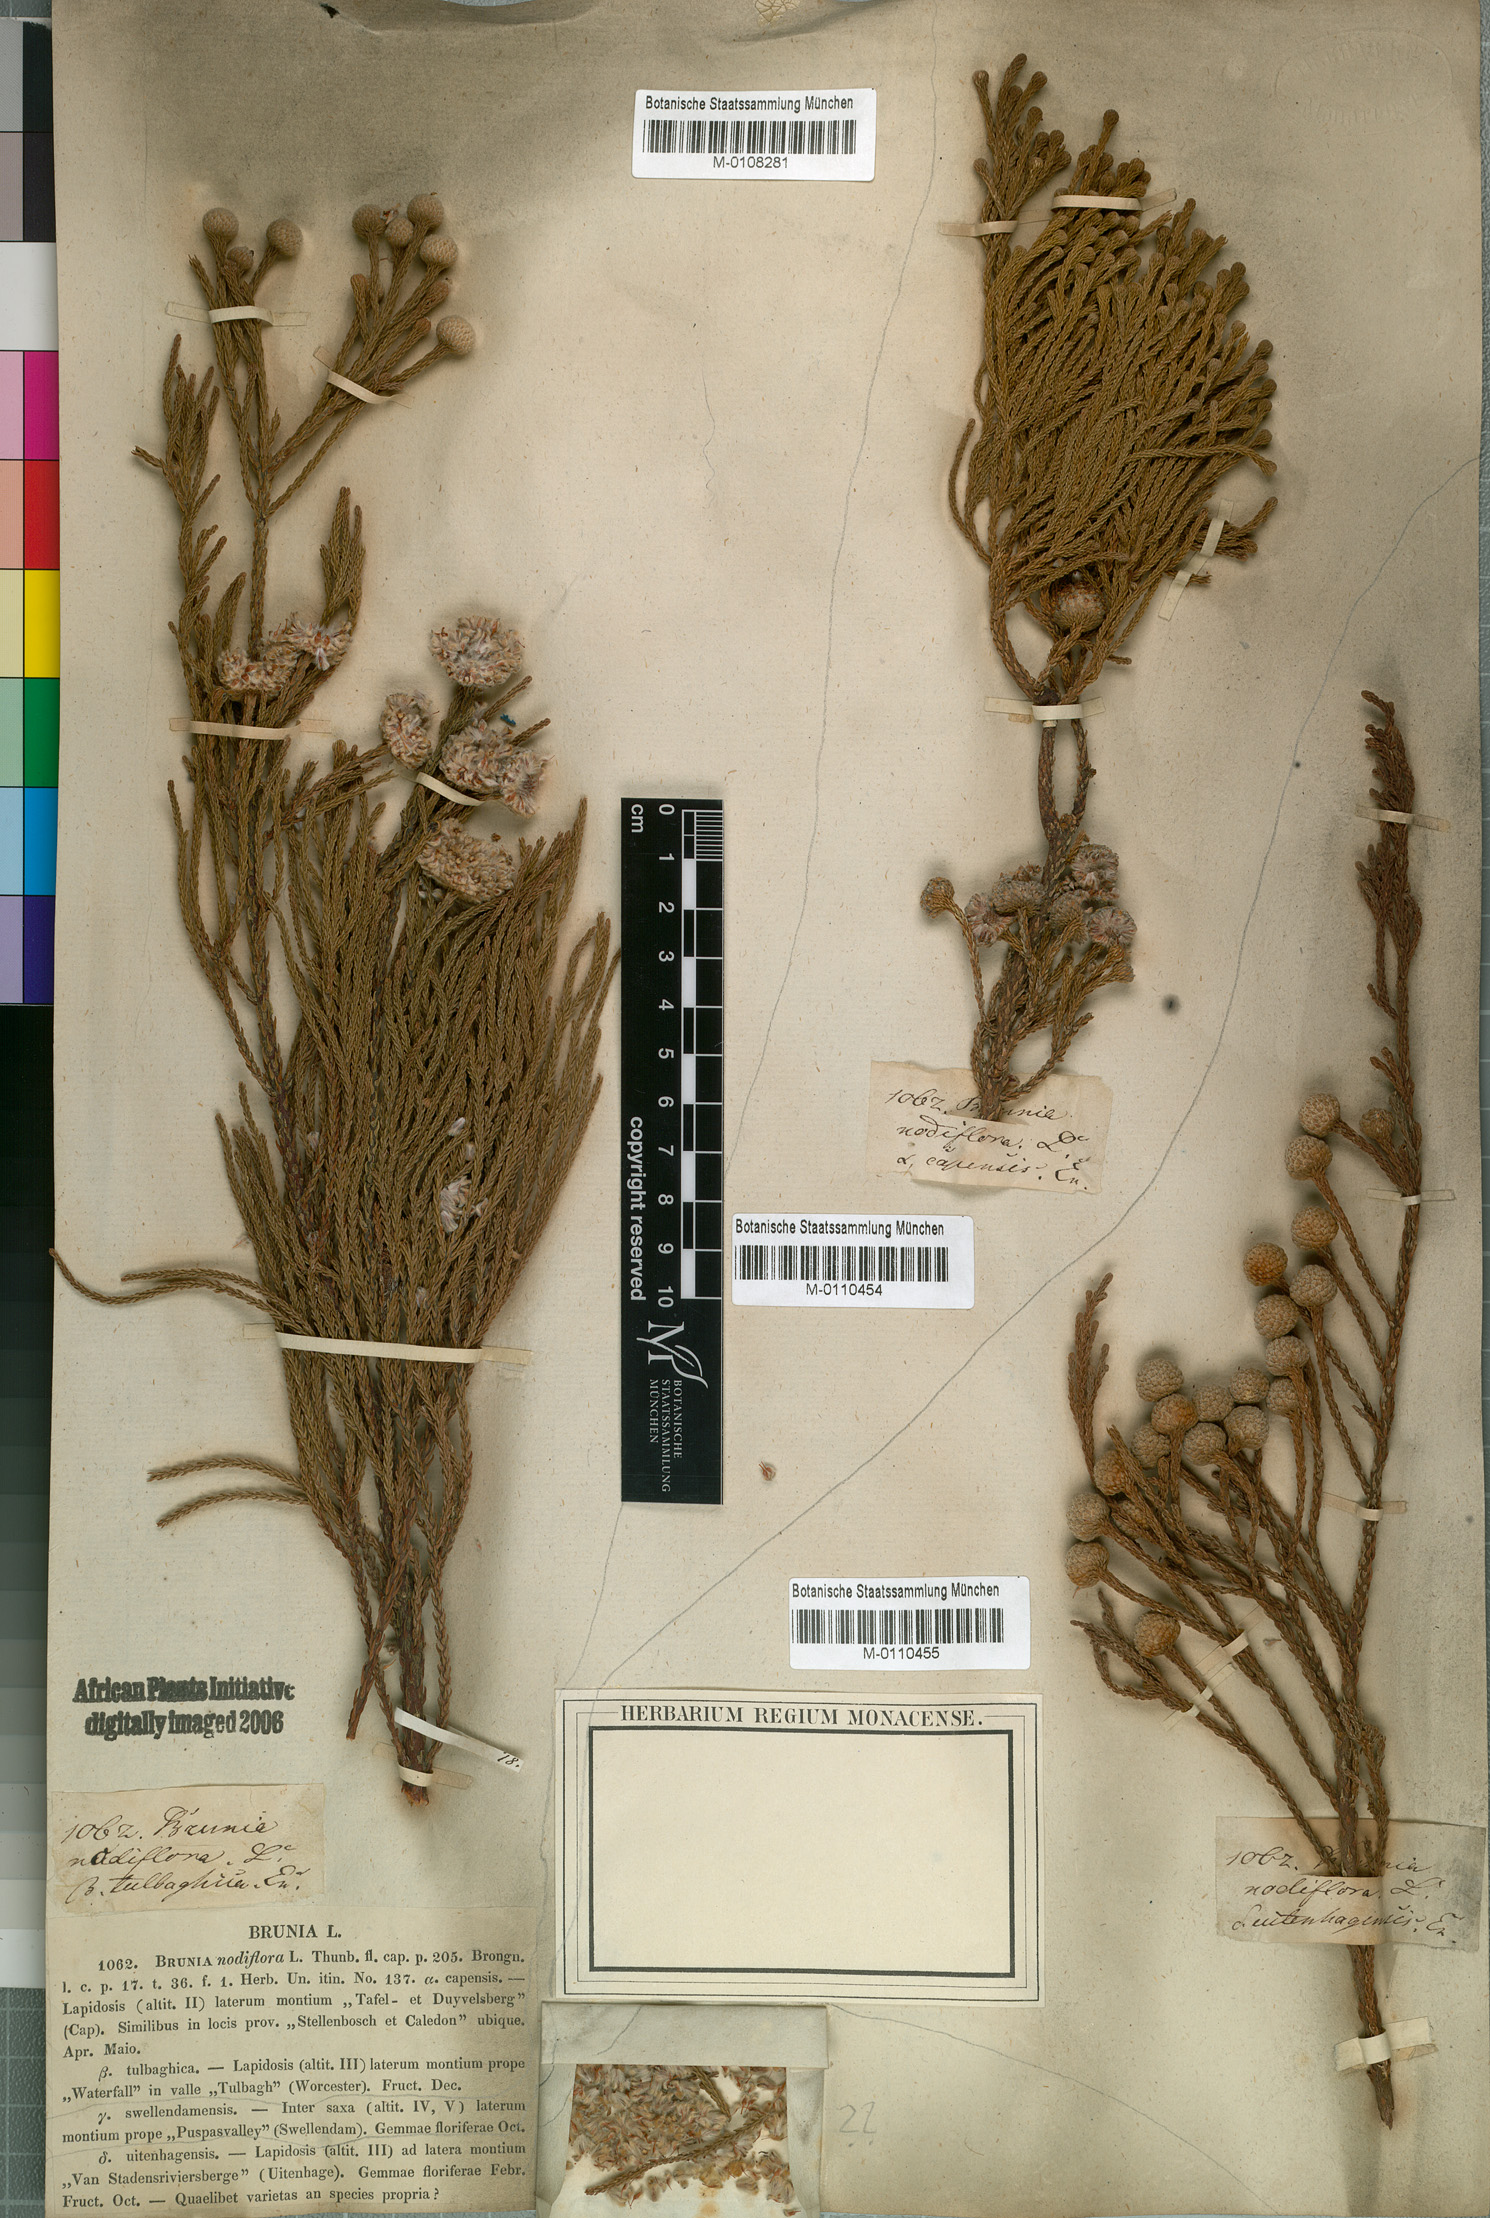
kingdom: Plantae
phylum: Tracheophyta
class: Pinopsida
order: Pinales
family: Cupressaceae
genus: Widdringtonia
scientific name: Widdringtonia nodiflora
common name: Cape cypress
